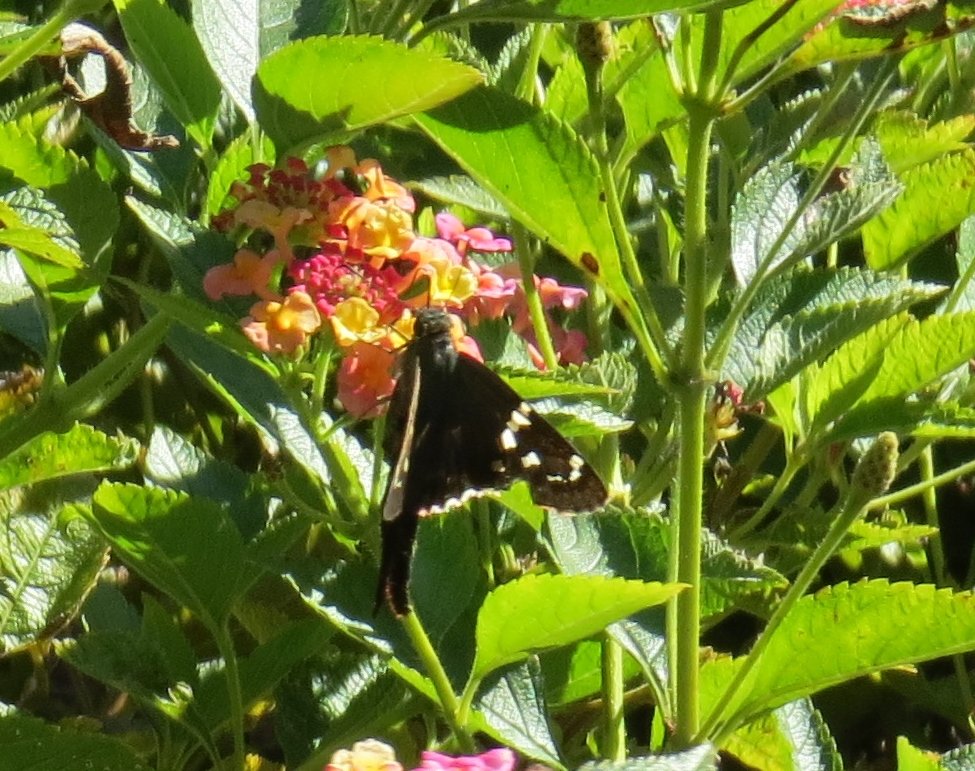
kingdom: Animalia
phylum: Arthropoda
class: Insecta
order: Lepidoptera
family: Hesperiidae
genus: Urbanus
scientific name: Urbanus proteus
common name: Long-tailed Skipper
